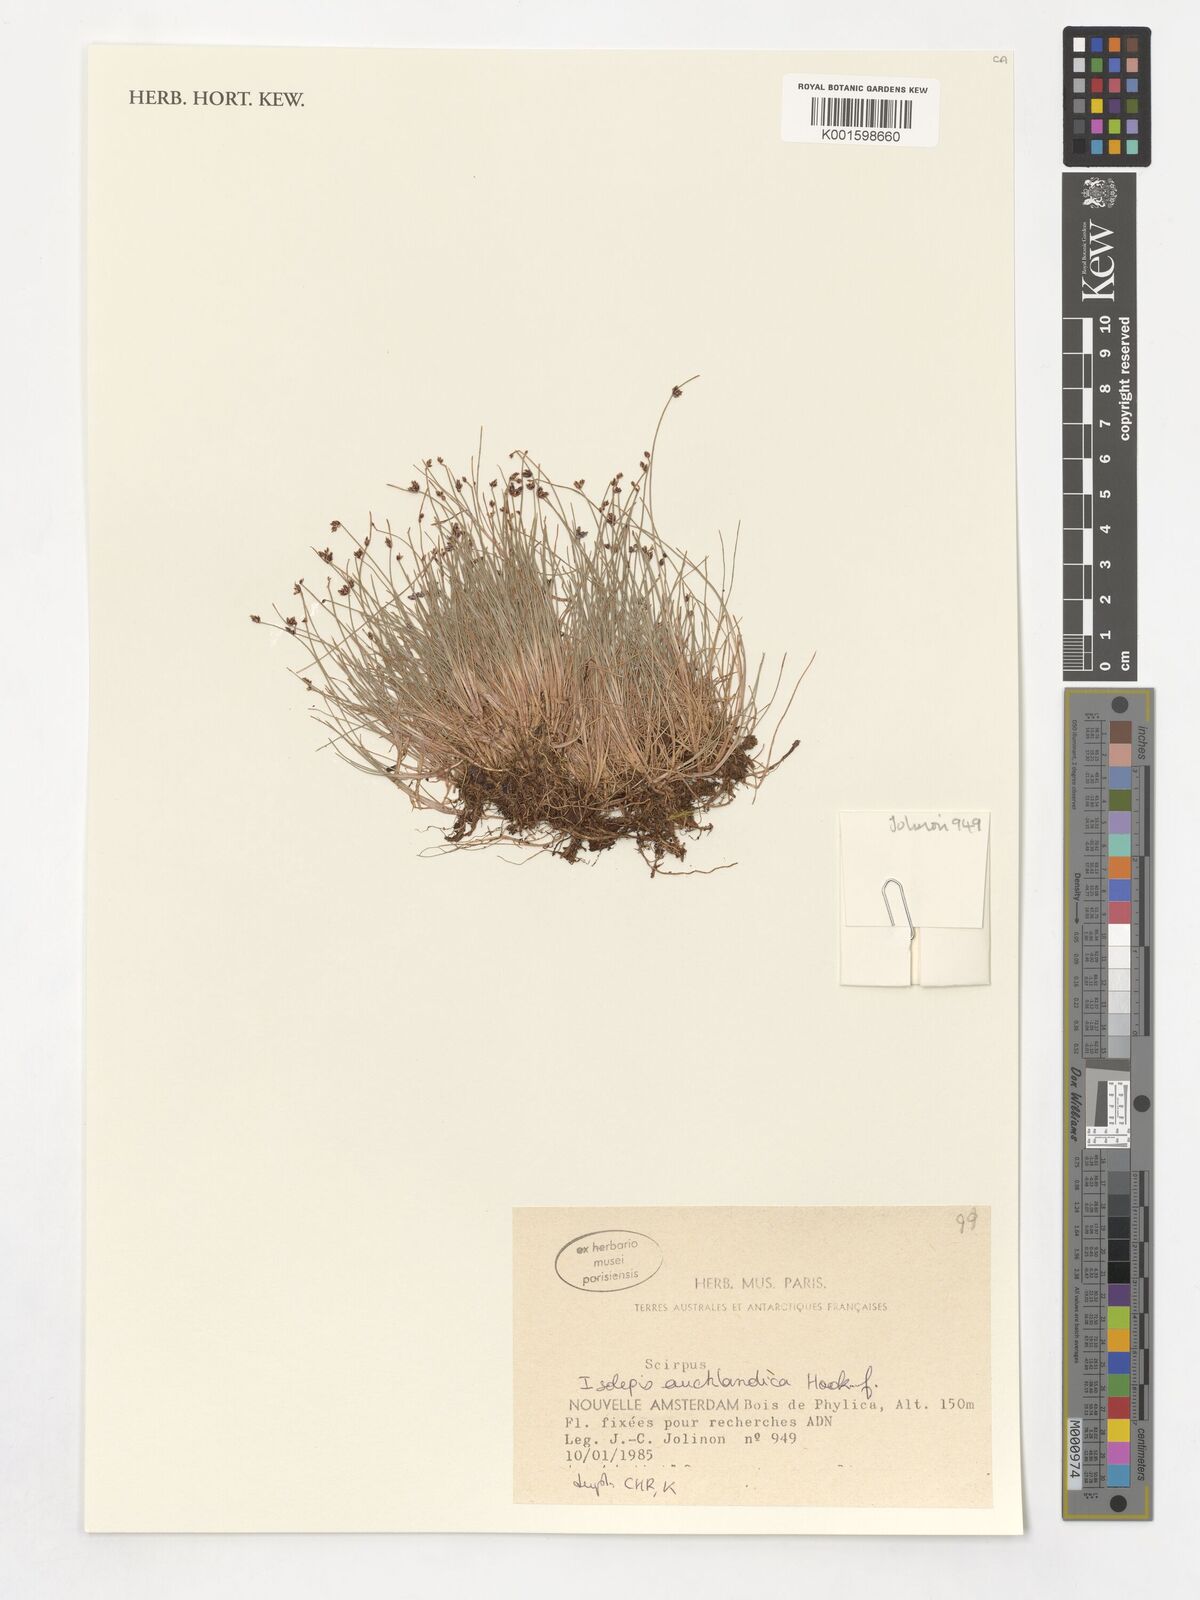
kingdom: Plantae
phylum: Tracheophyta
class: Liliopsida
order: Poales
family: Cyperaceae
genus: Isolepis
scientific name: Isolepis aucklandica
